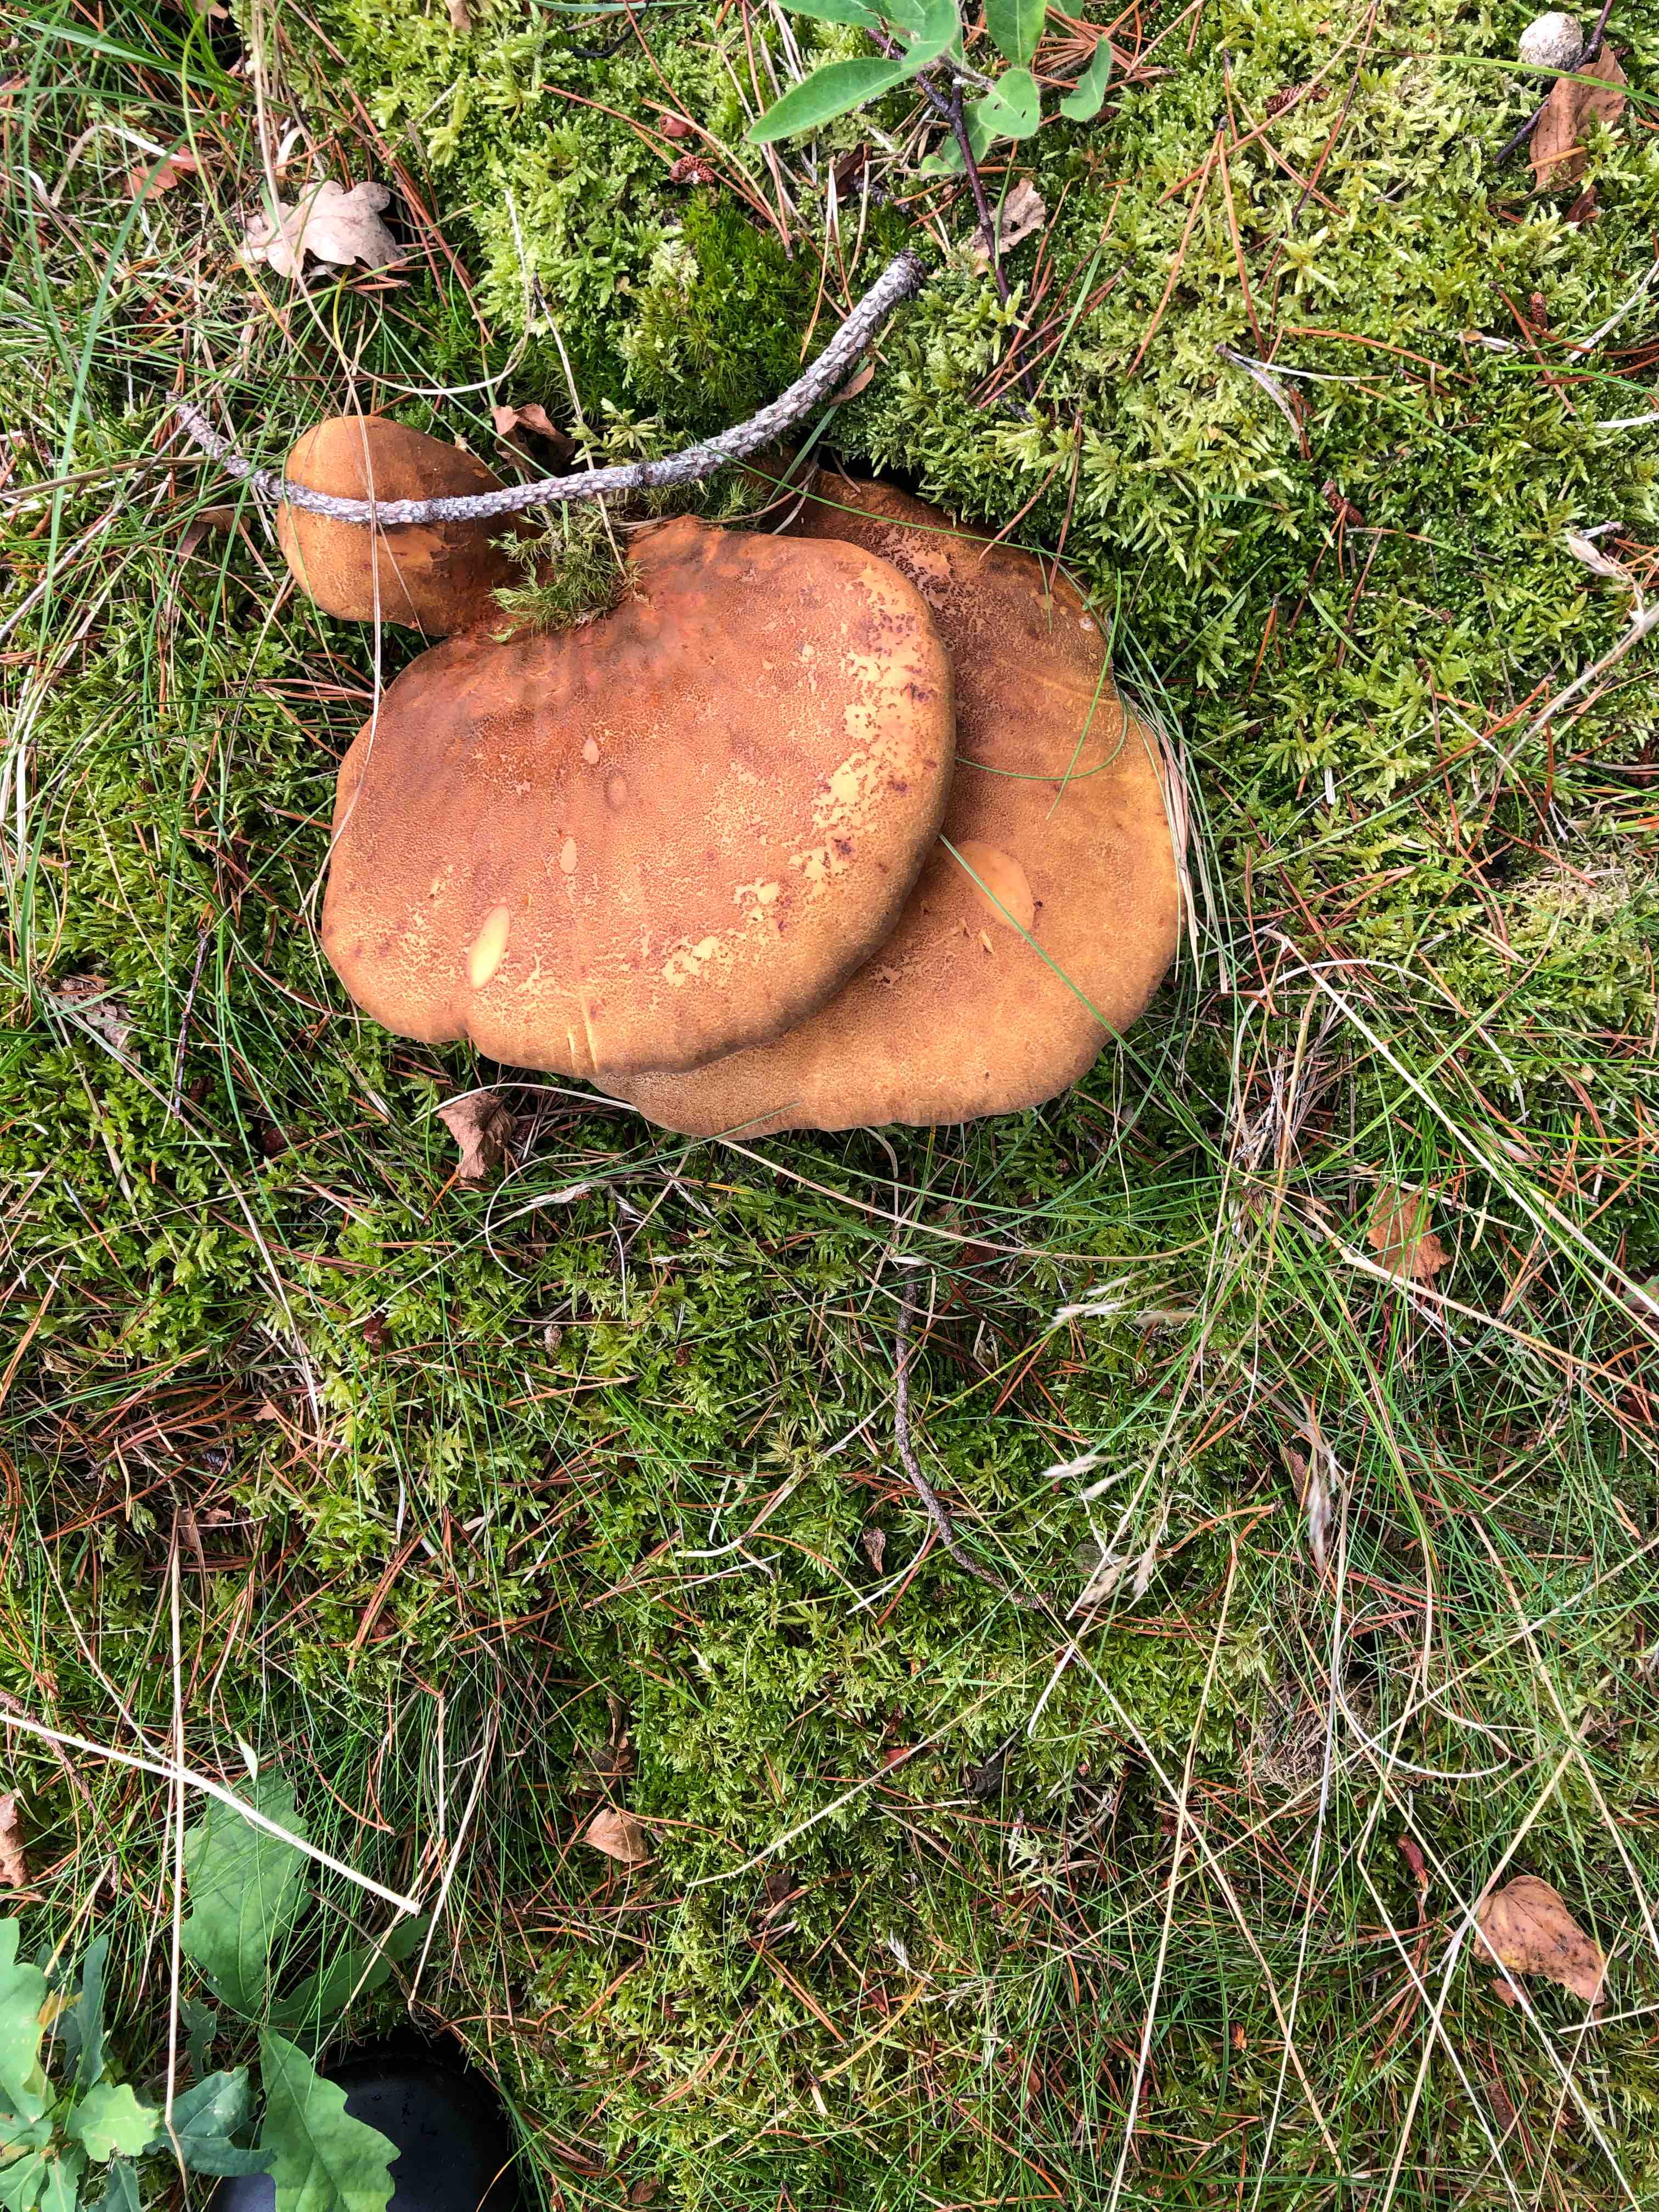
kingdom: Fungi
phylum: Basidiomycota
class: Agaricomycetes
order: Boletales
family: Tapinellaceae
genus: Tapinella
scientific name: Tapinella atrotomentosa
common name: sortfiltet viftesvamp
